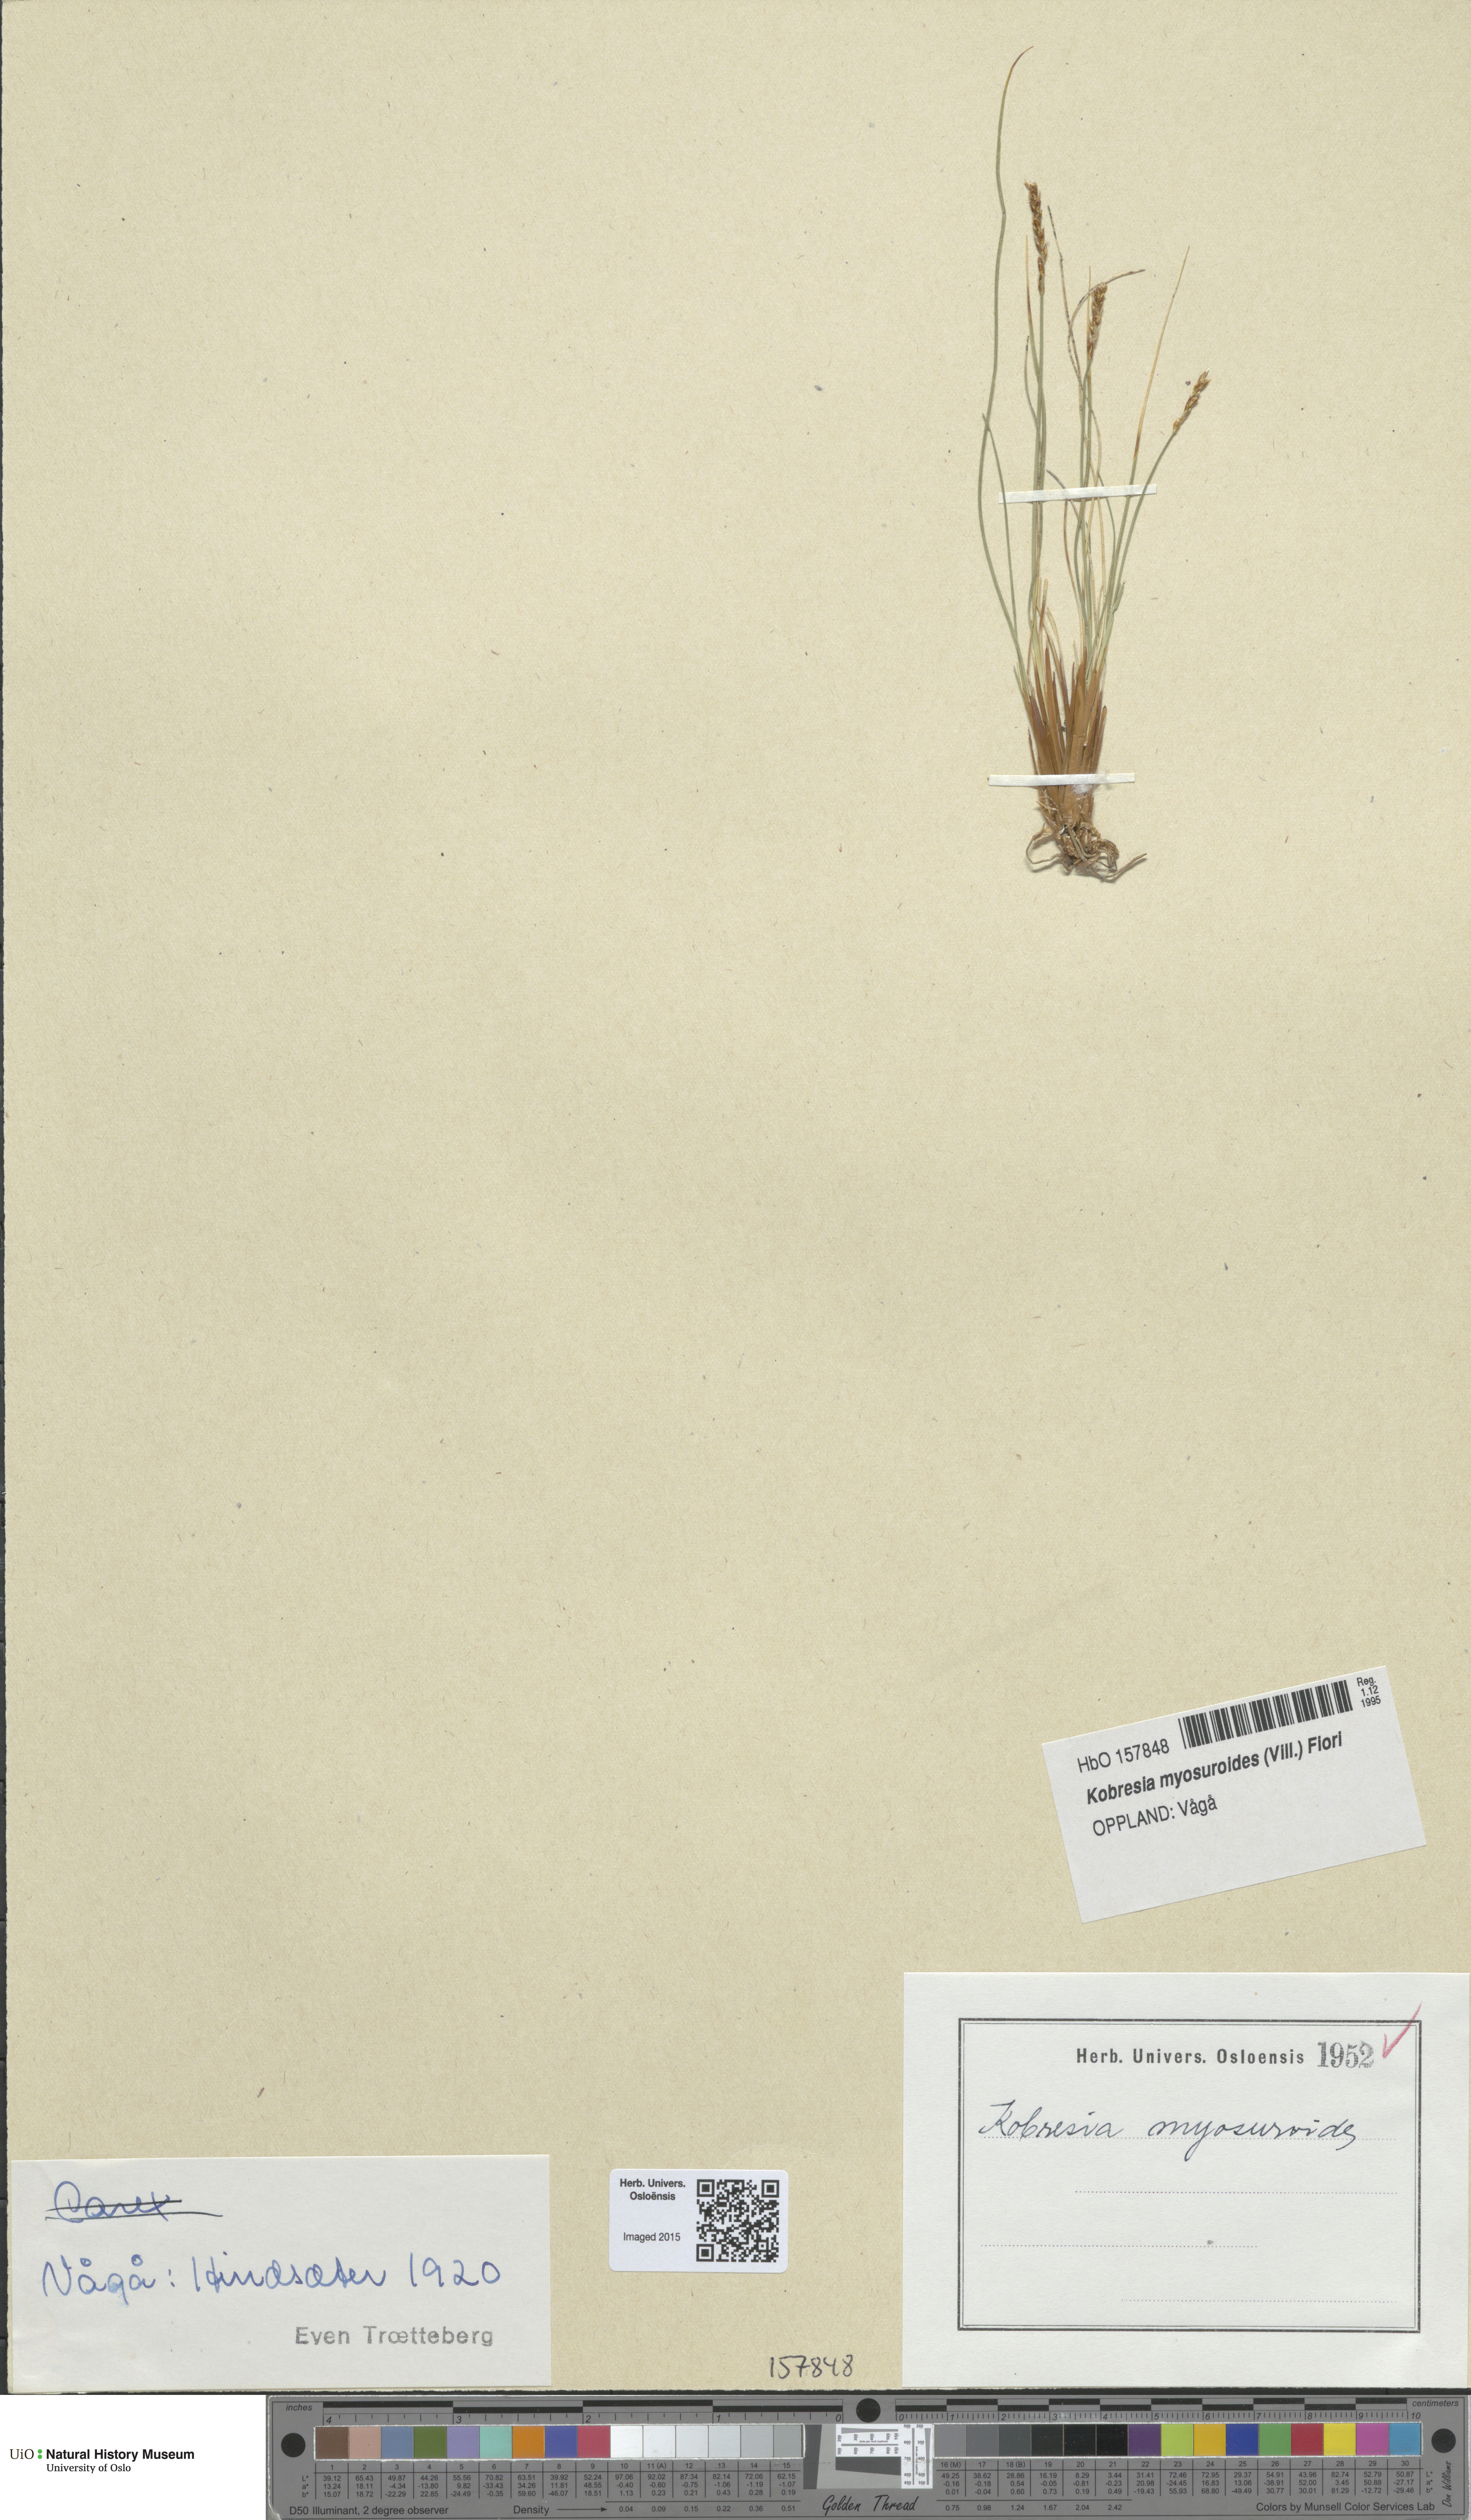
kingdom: Plantae
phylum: Tracheophyta
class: Liliopsida
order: Poales
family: Cyperaceae
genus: Carex
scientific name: Carex myosuroides
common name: Bellard's bog sedge
